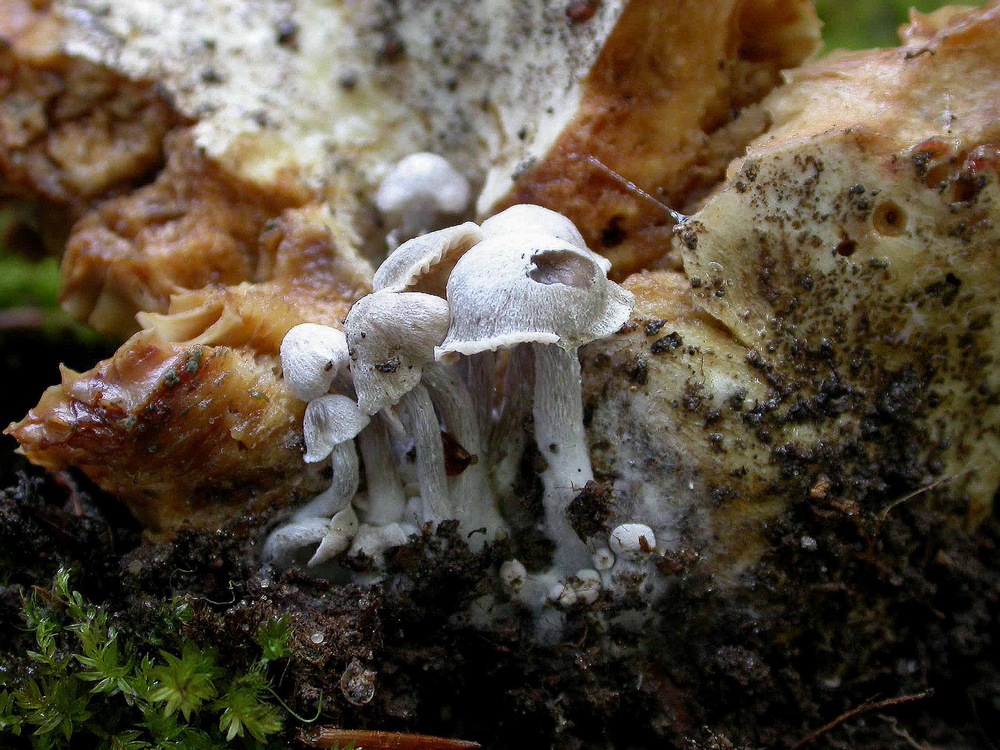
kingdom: Fungi
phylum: Basidiomycota
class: Agaricomycetes
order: Agaricales
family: Lyophyllaceae
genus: Asterophora
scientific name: Asterophora parasitica
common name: grå snyltehat
